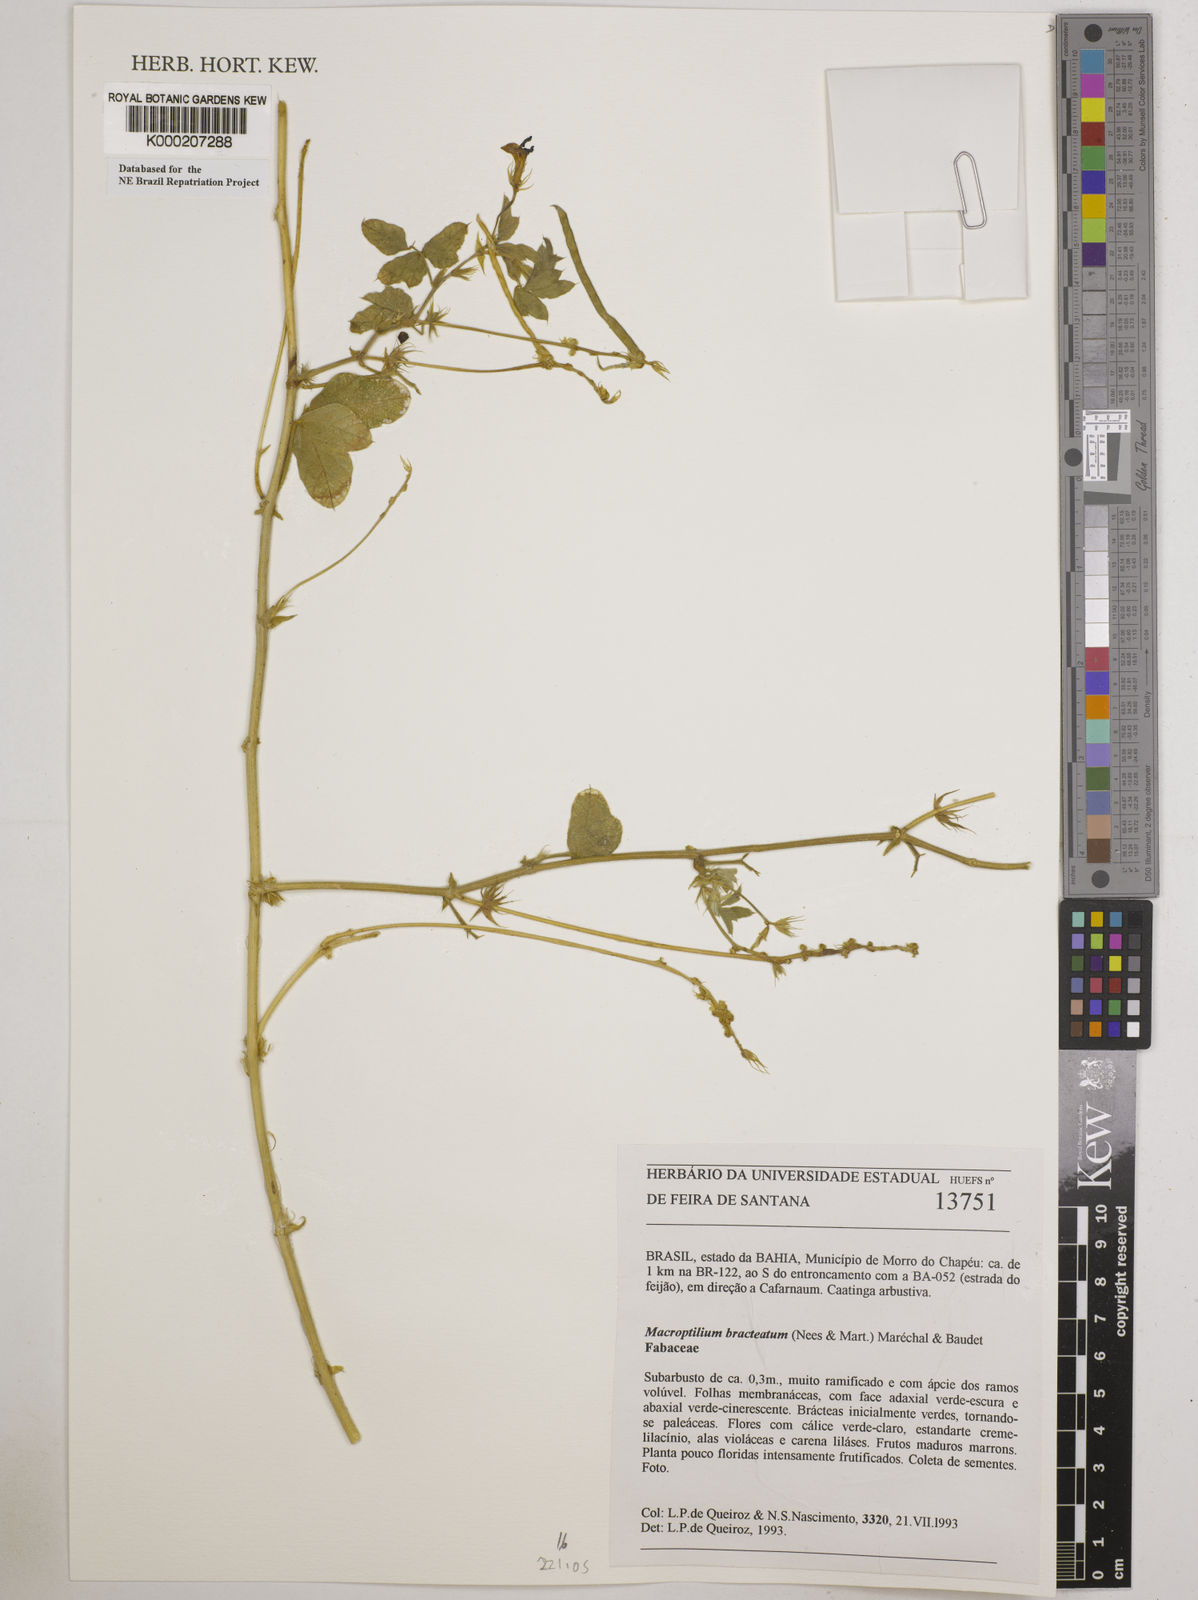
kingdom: Plantae
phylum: Tracheophyta
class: Magnoliopsida
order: Fabales
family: Fabaceae
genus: Macroptilium
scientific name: Macroptilium
